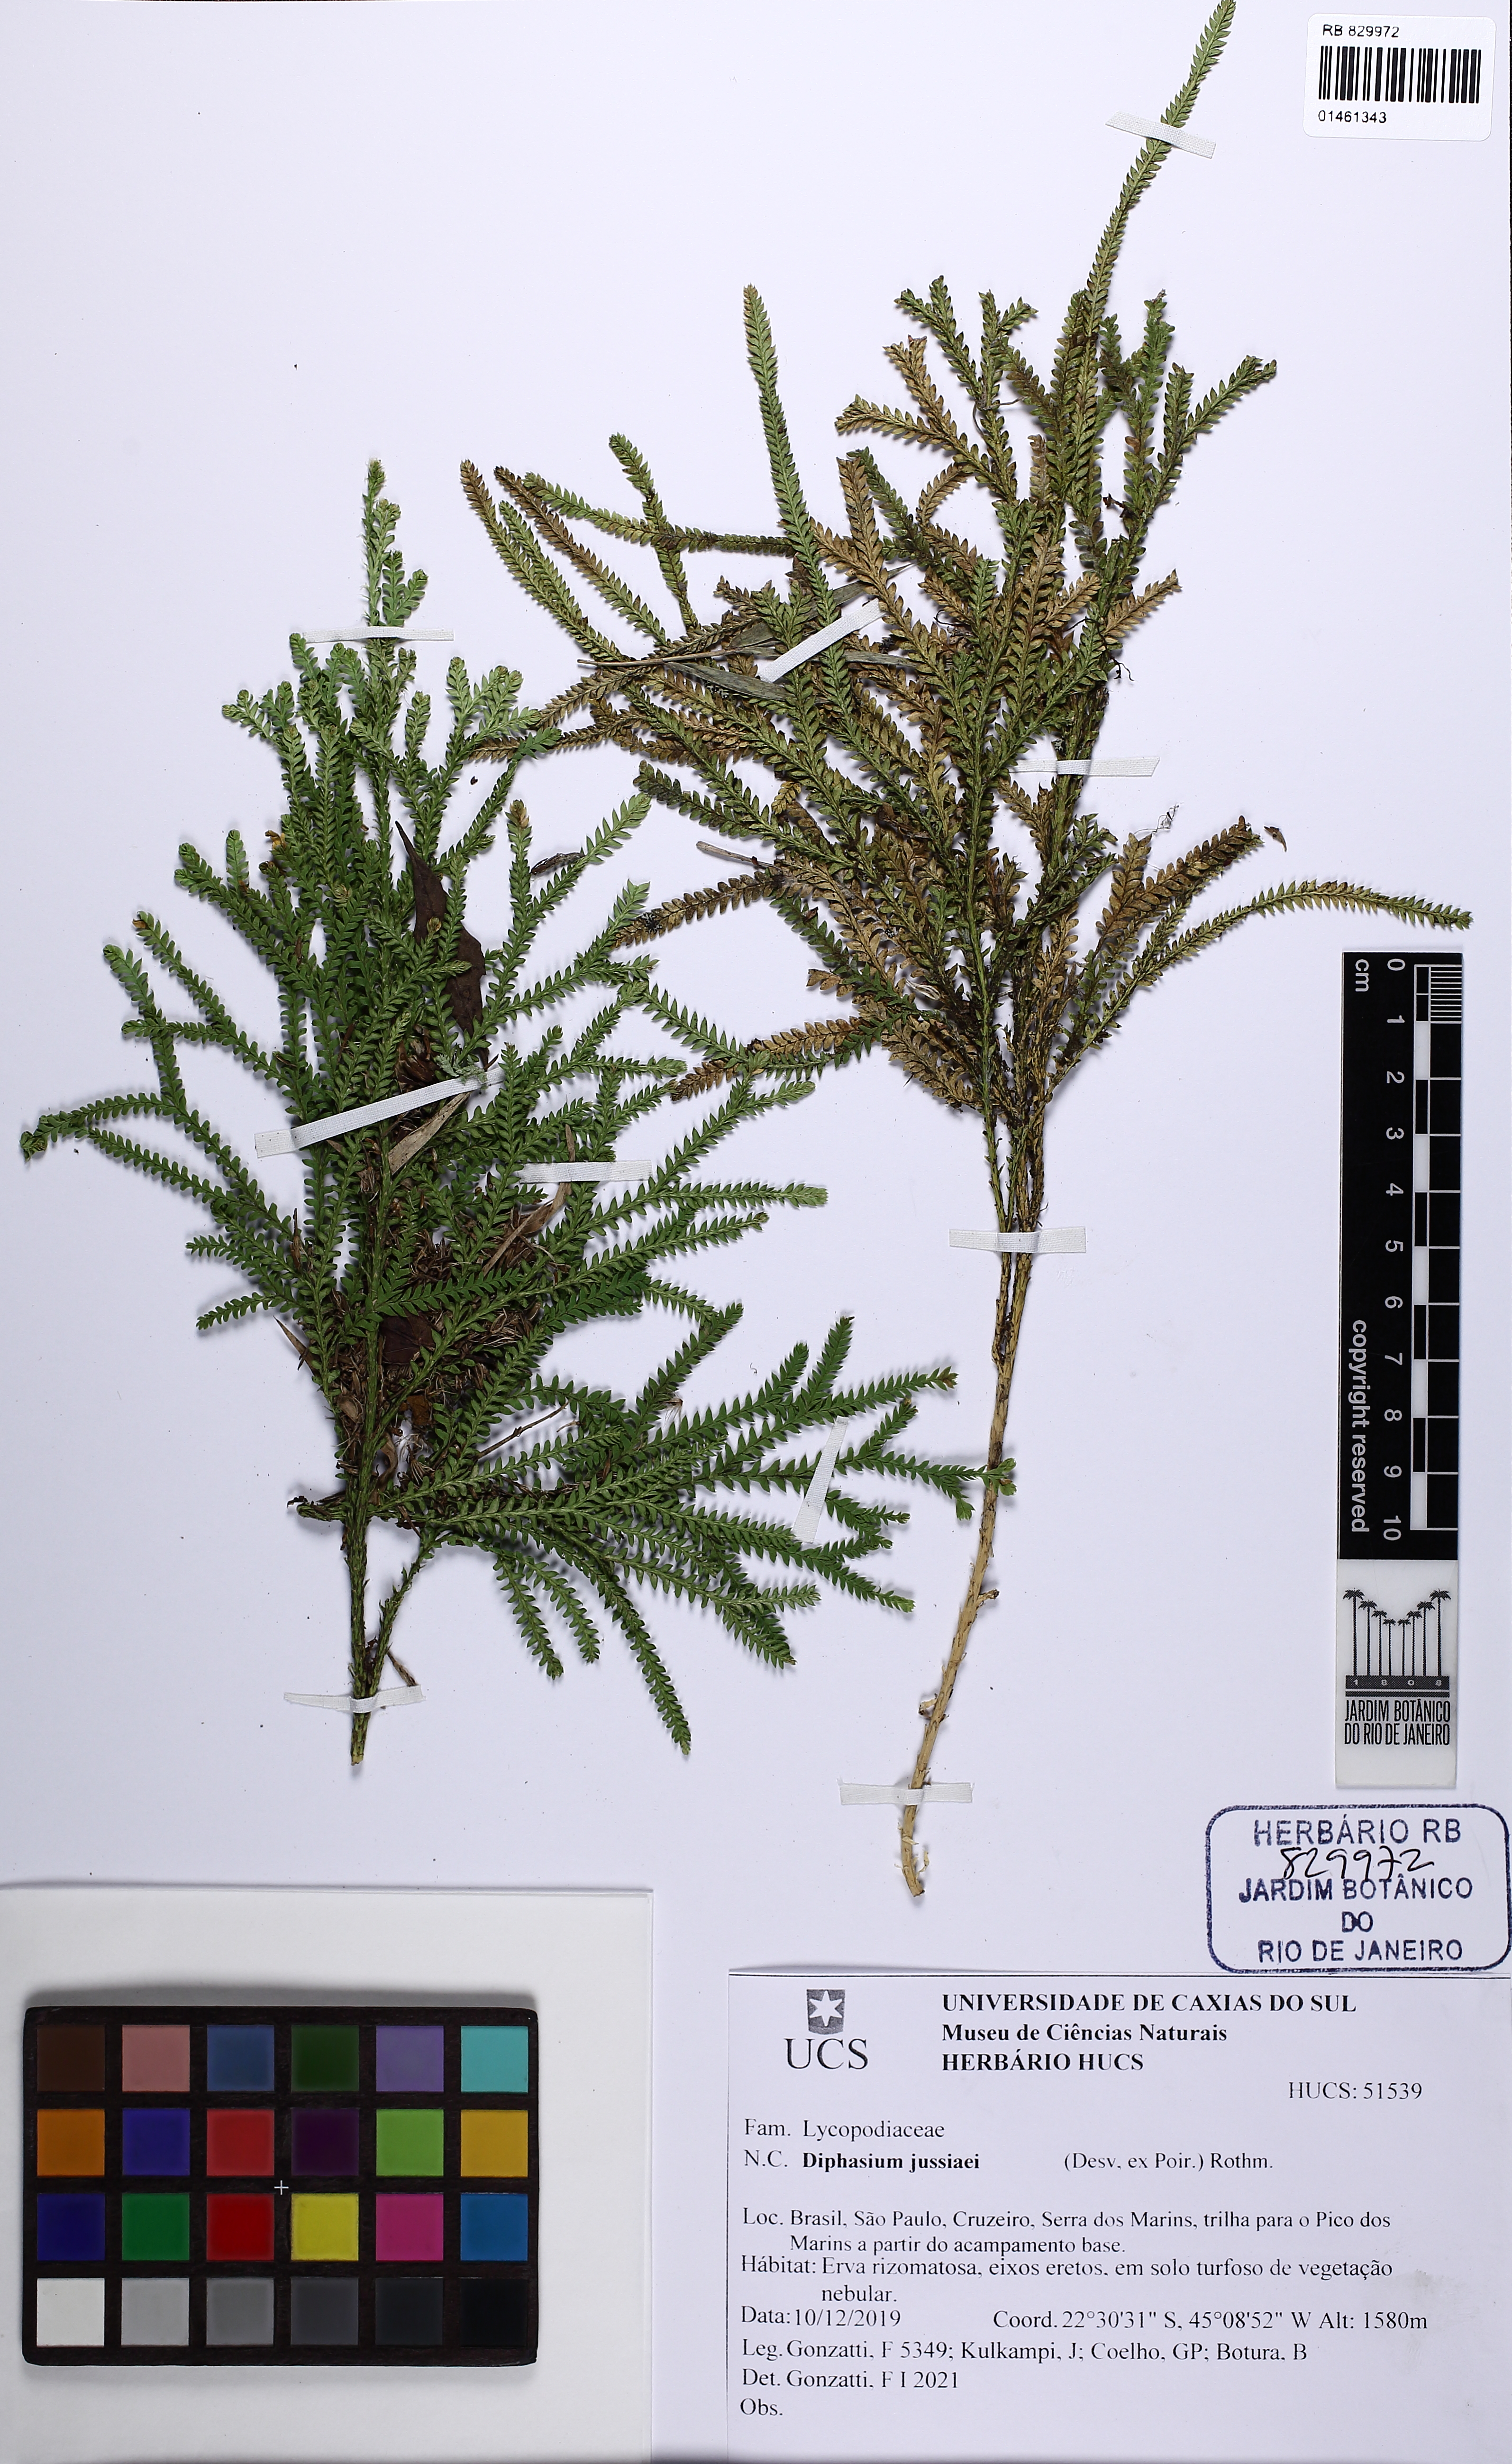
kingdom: Plantae
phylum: Tracheophyta
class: Lycopodiopsida
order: Lycopodiales
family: Lycopodiaceae
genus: Diphasium
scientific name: Diphasium jussiaei
